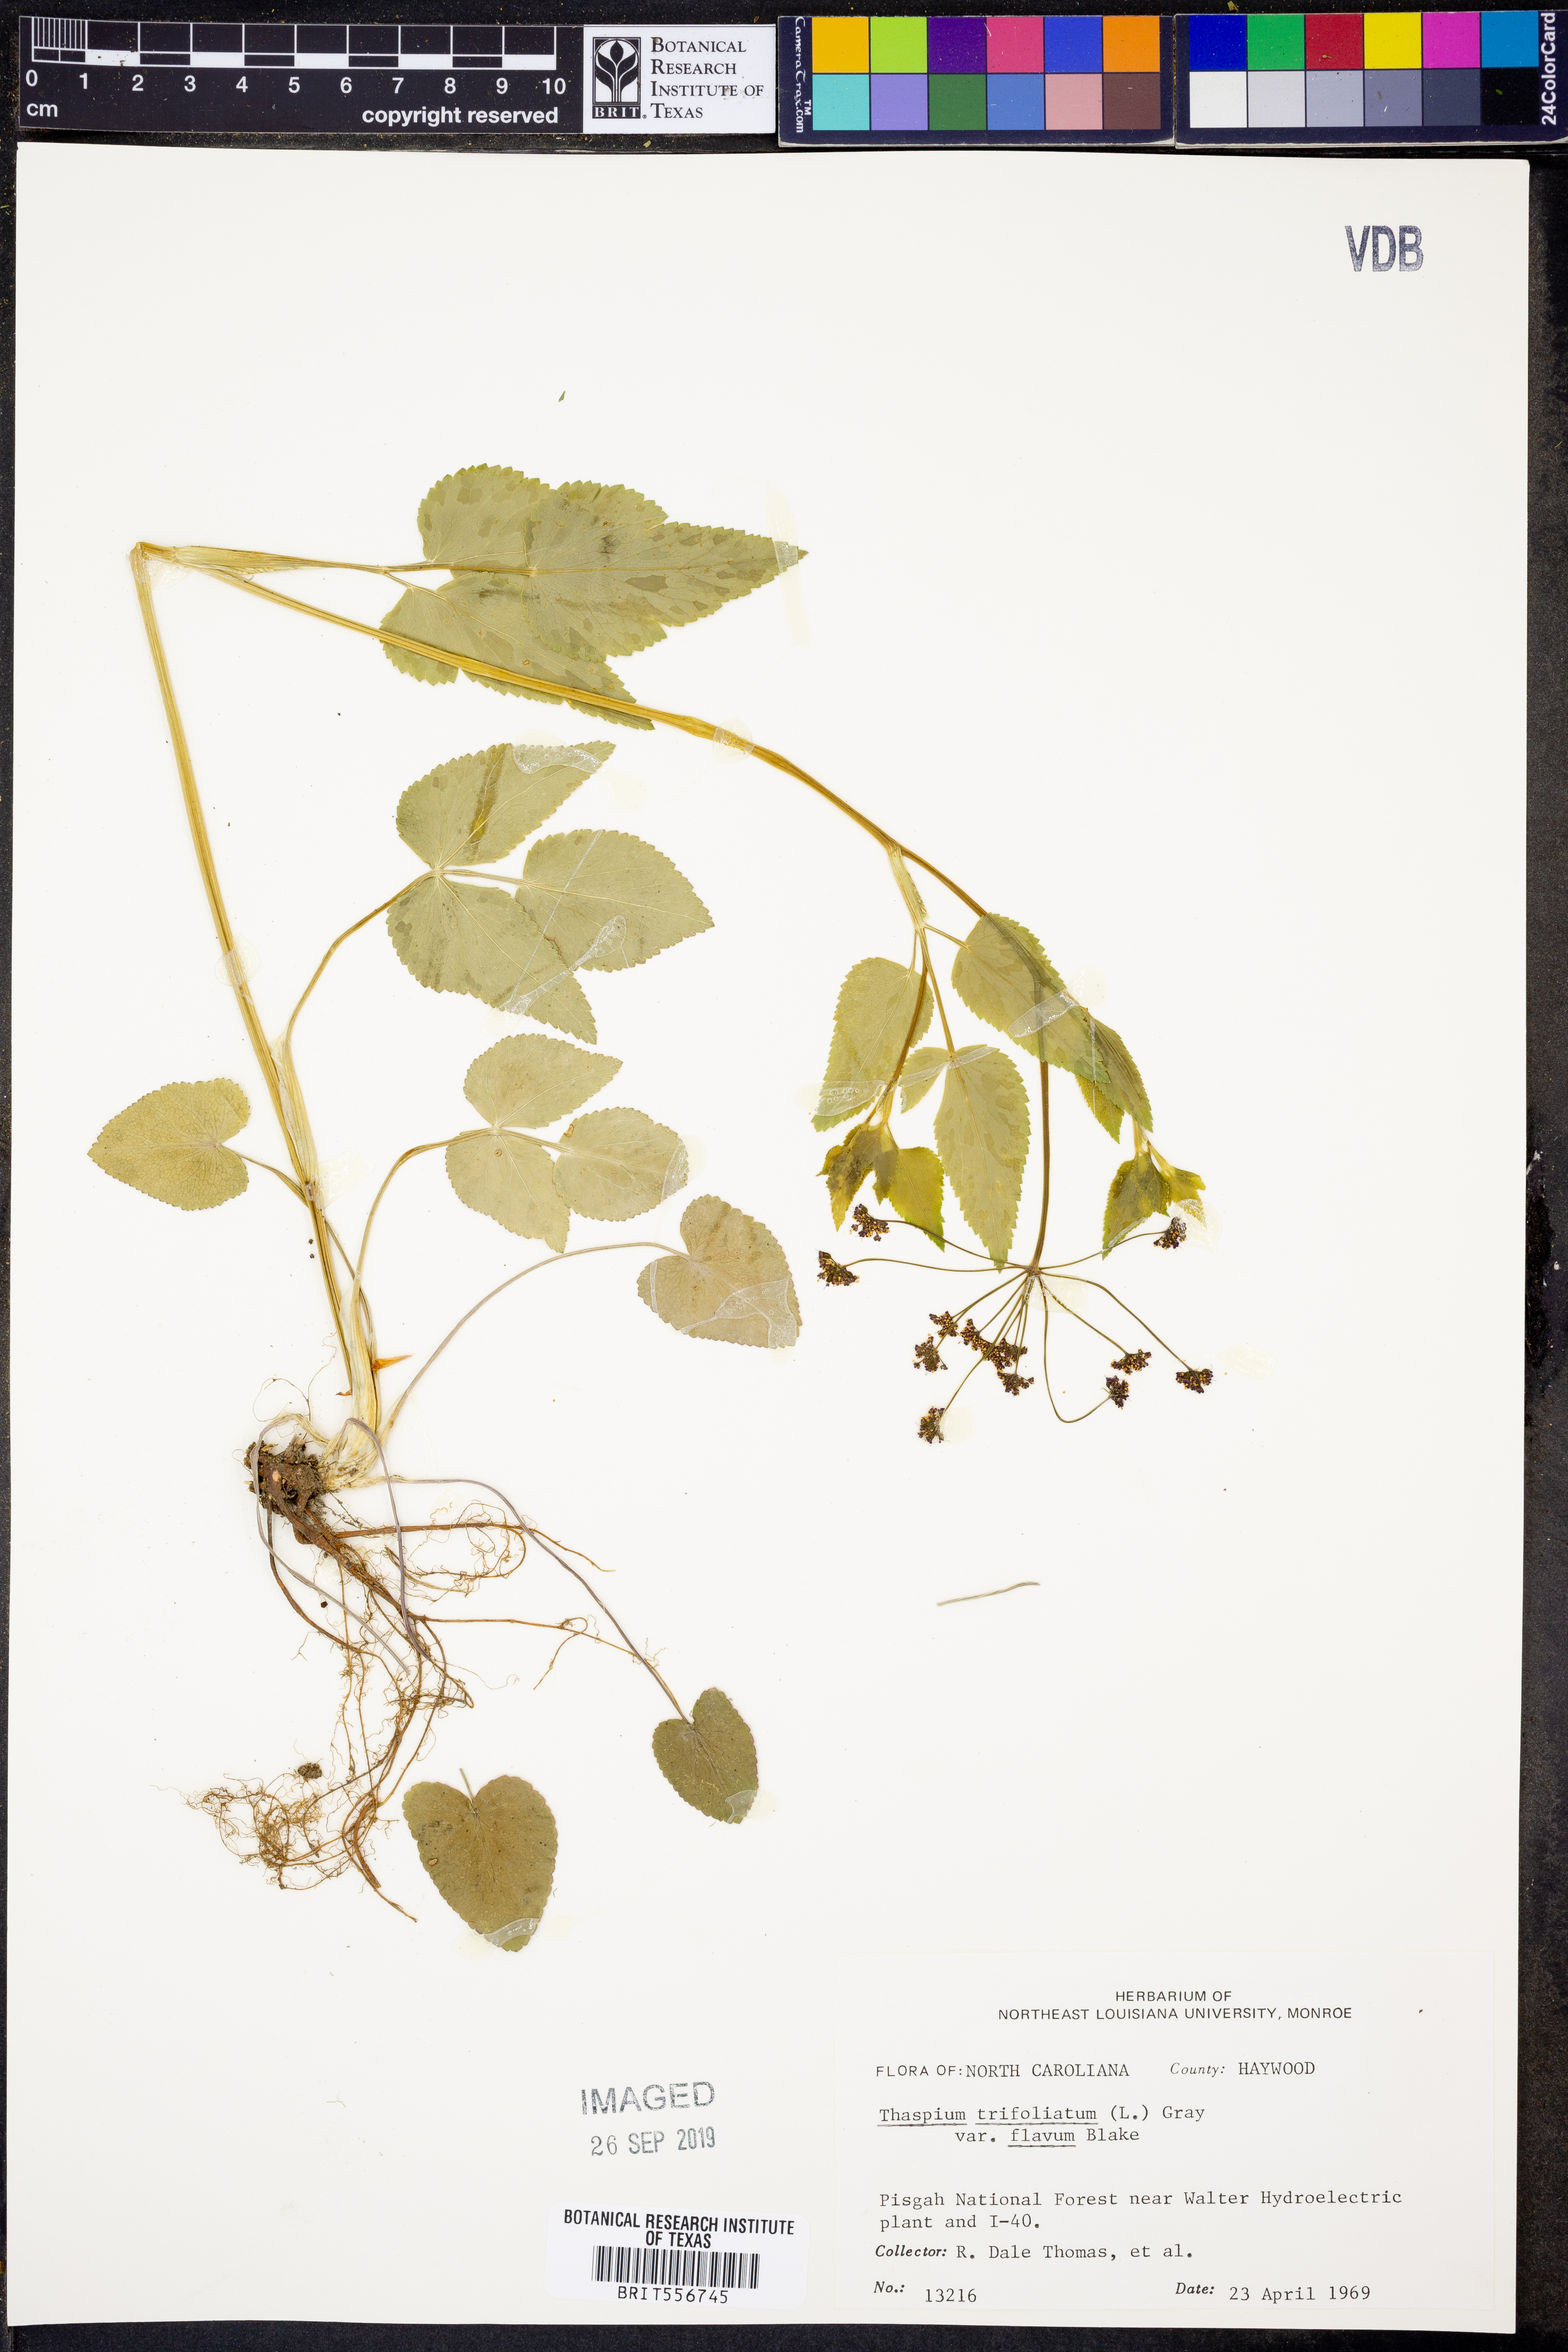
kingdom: Plantae
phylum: Tracheophyta
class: Magnoliopsida
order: Apiales
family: Apiaceae
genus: Thaspium
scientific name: Thaspium trifoliatum
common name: Purple meadow-parsnip
